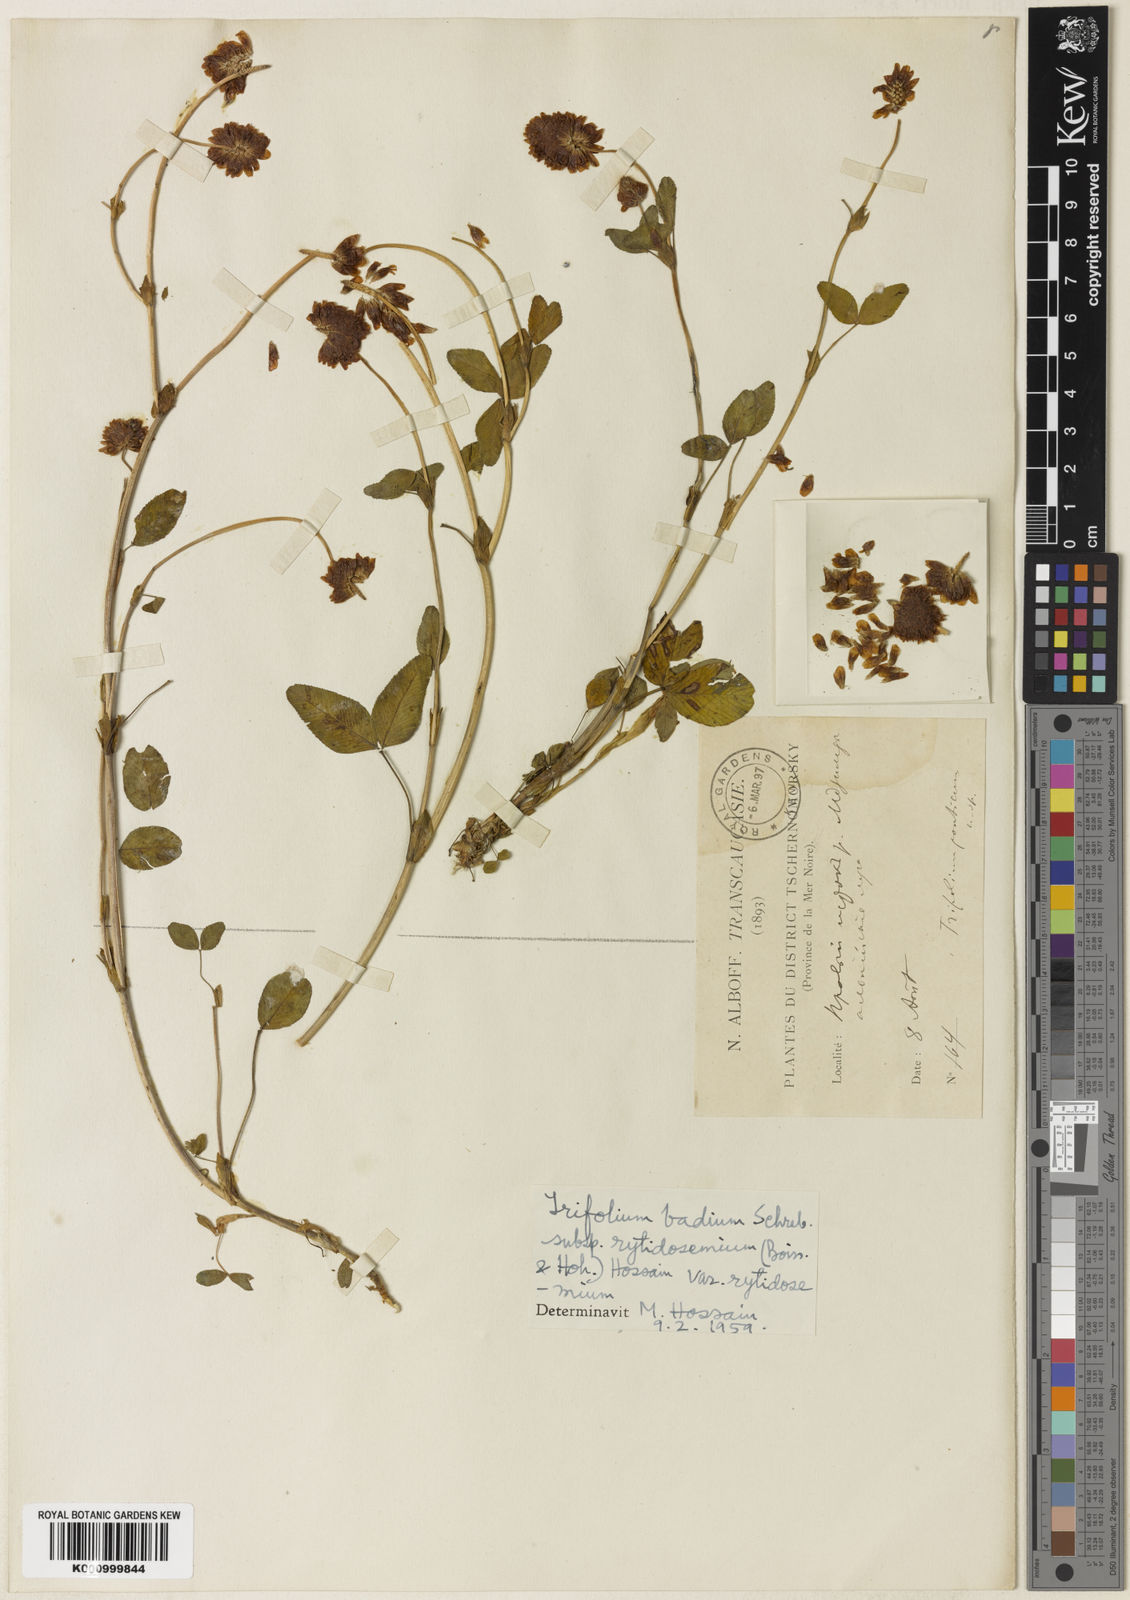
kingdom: Plantae
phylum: Tracheophyta
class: Magnoliopsida
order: Fabales
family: Fabaceae
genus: Trifolium
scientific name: Trifolium badium
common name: Brown clover
